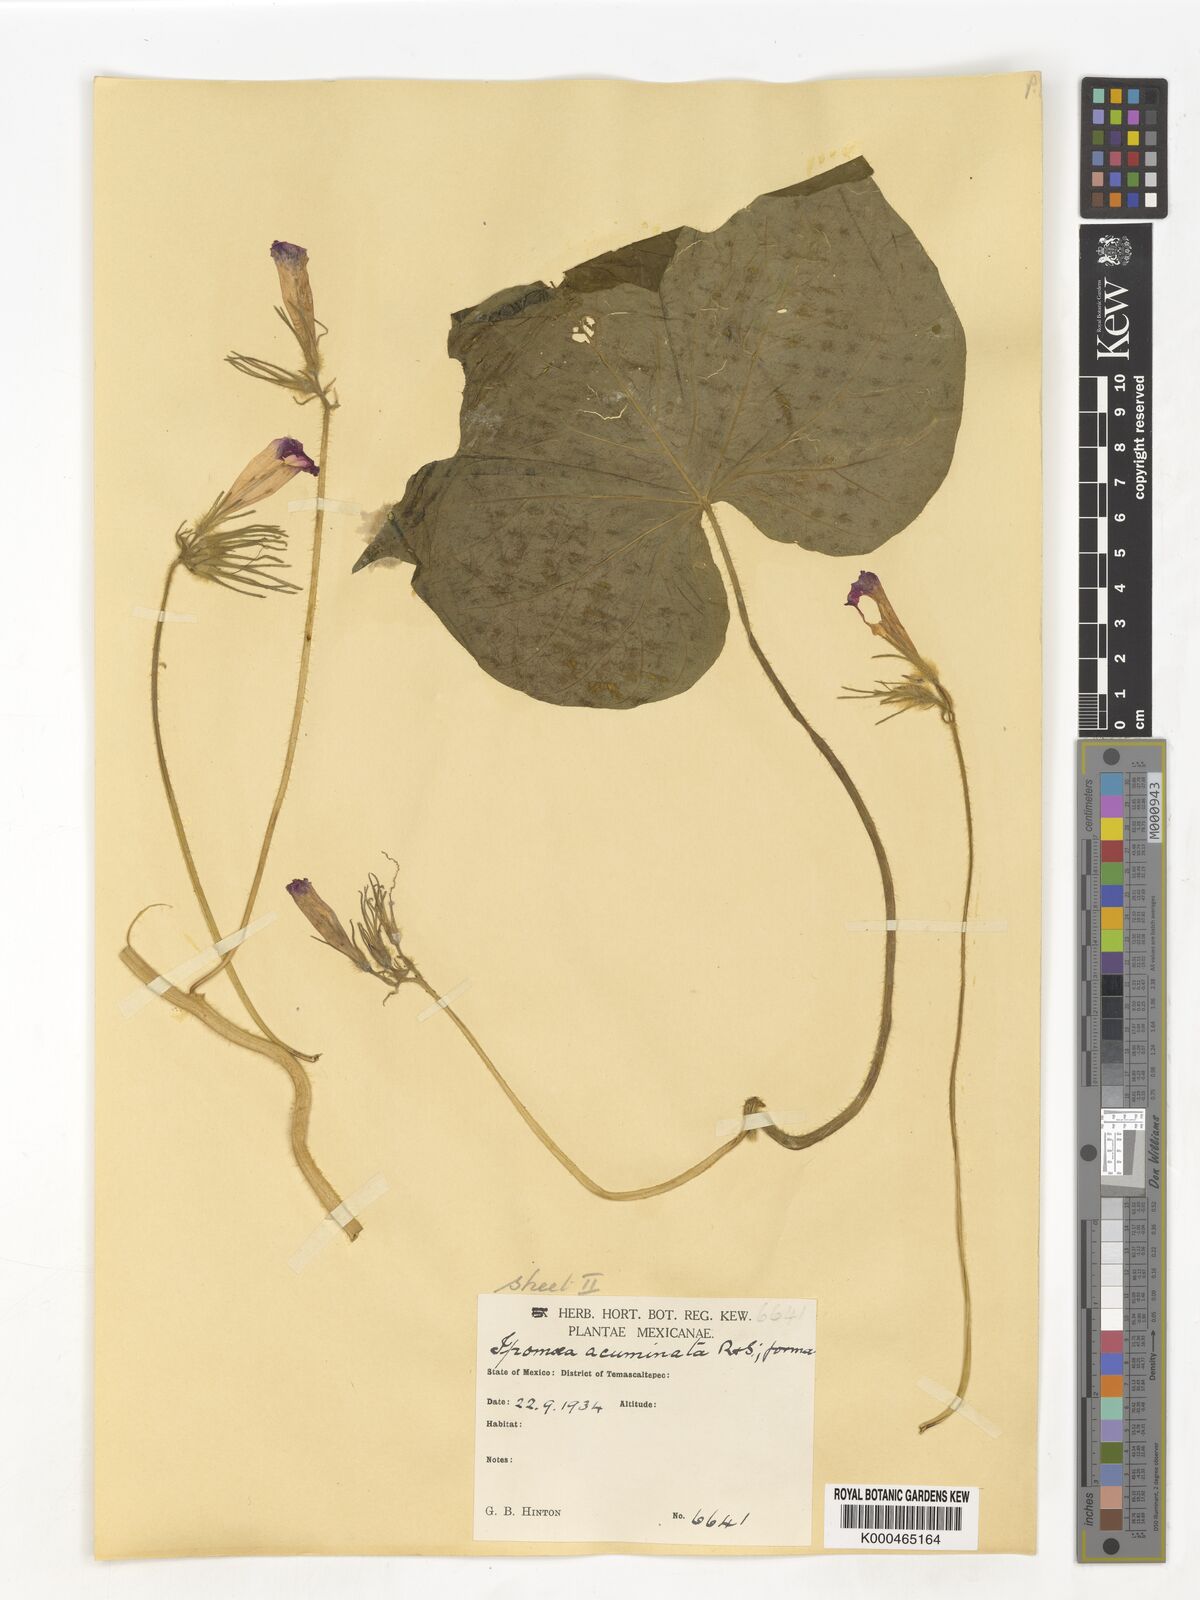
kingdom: Plantae
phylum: Tracheophyta
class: Magnoliopsida
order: Solanales
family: Convolvulaceae
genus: Ipomoea
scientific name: Ipomoea
